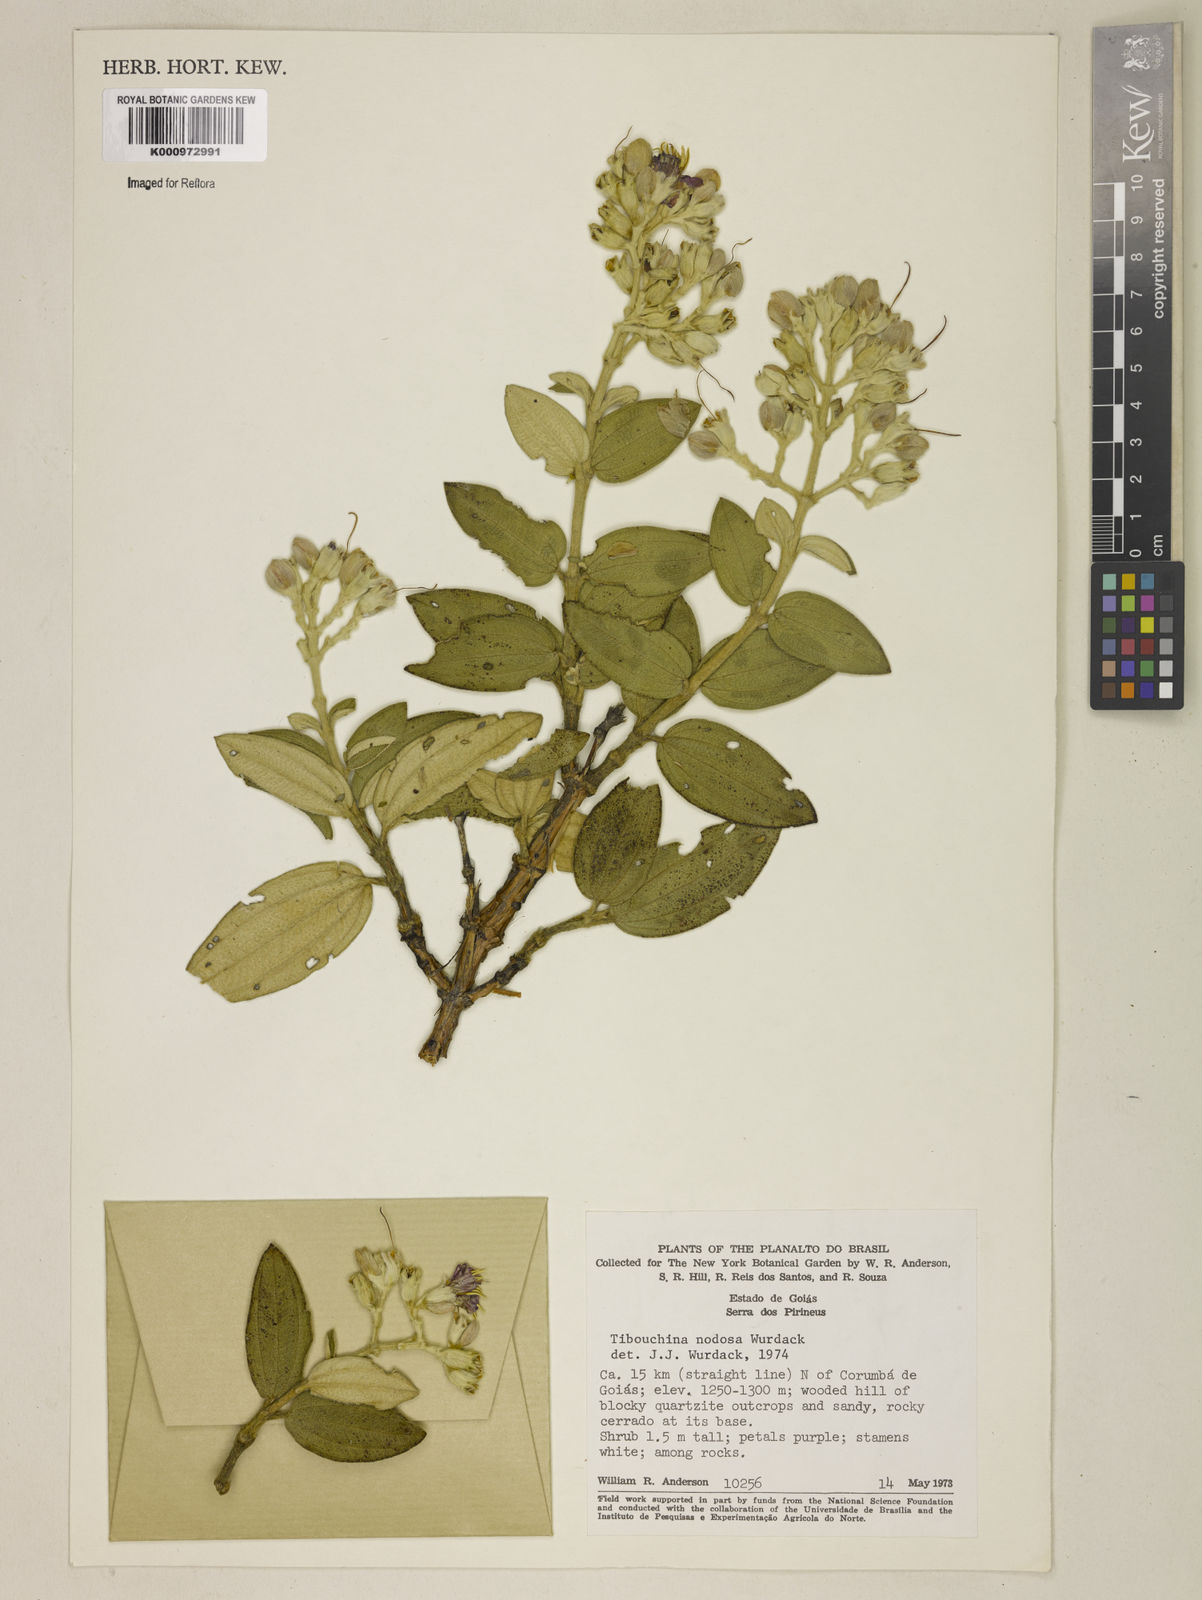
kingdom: Plantae
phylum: Tracheophyta
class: Magnoliopsida
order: Myrtales
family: Melastomataceae
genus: Pleroma
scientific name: Pleroma nodosum
